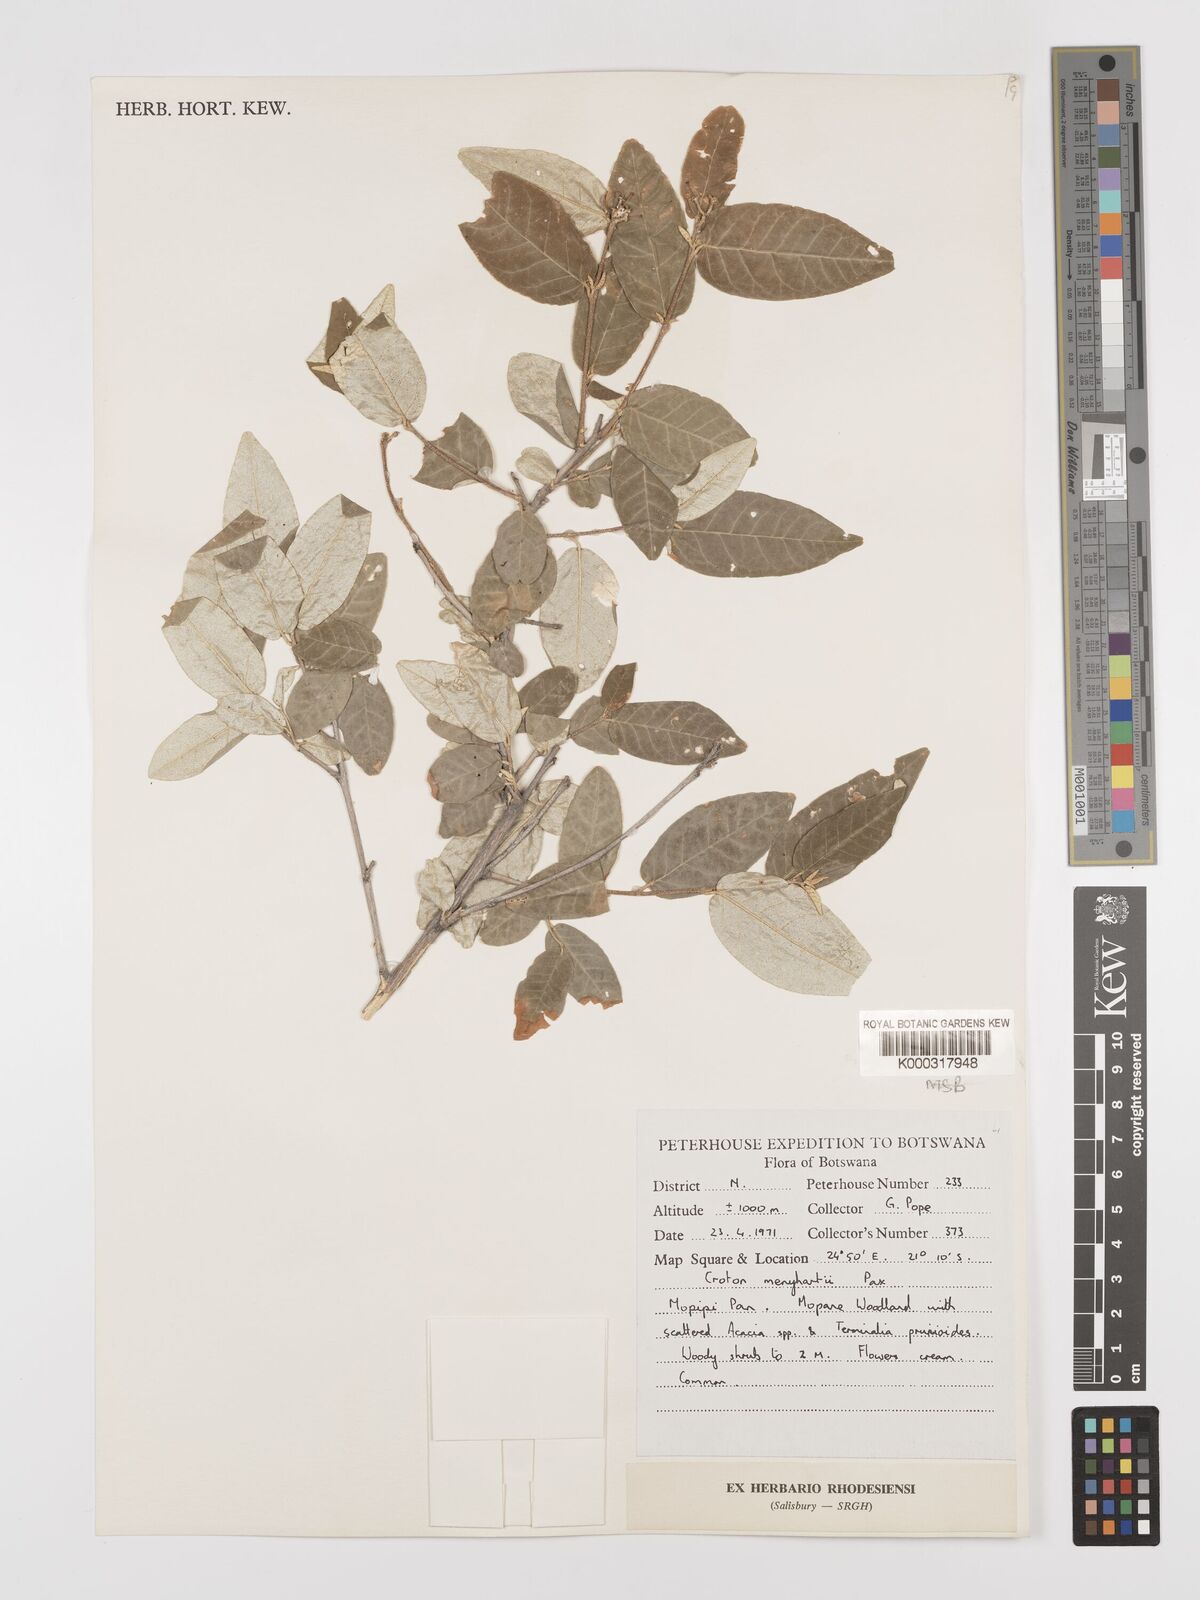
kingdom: Plantae
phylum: Tracheophyta
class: Magnoliopsida
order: Malpighiales
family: Euphorbiaceae
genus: Croton
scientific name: Croton menyharthii
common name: Rough-leaved croton
